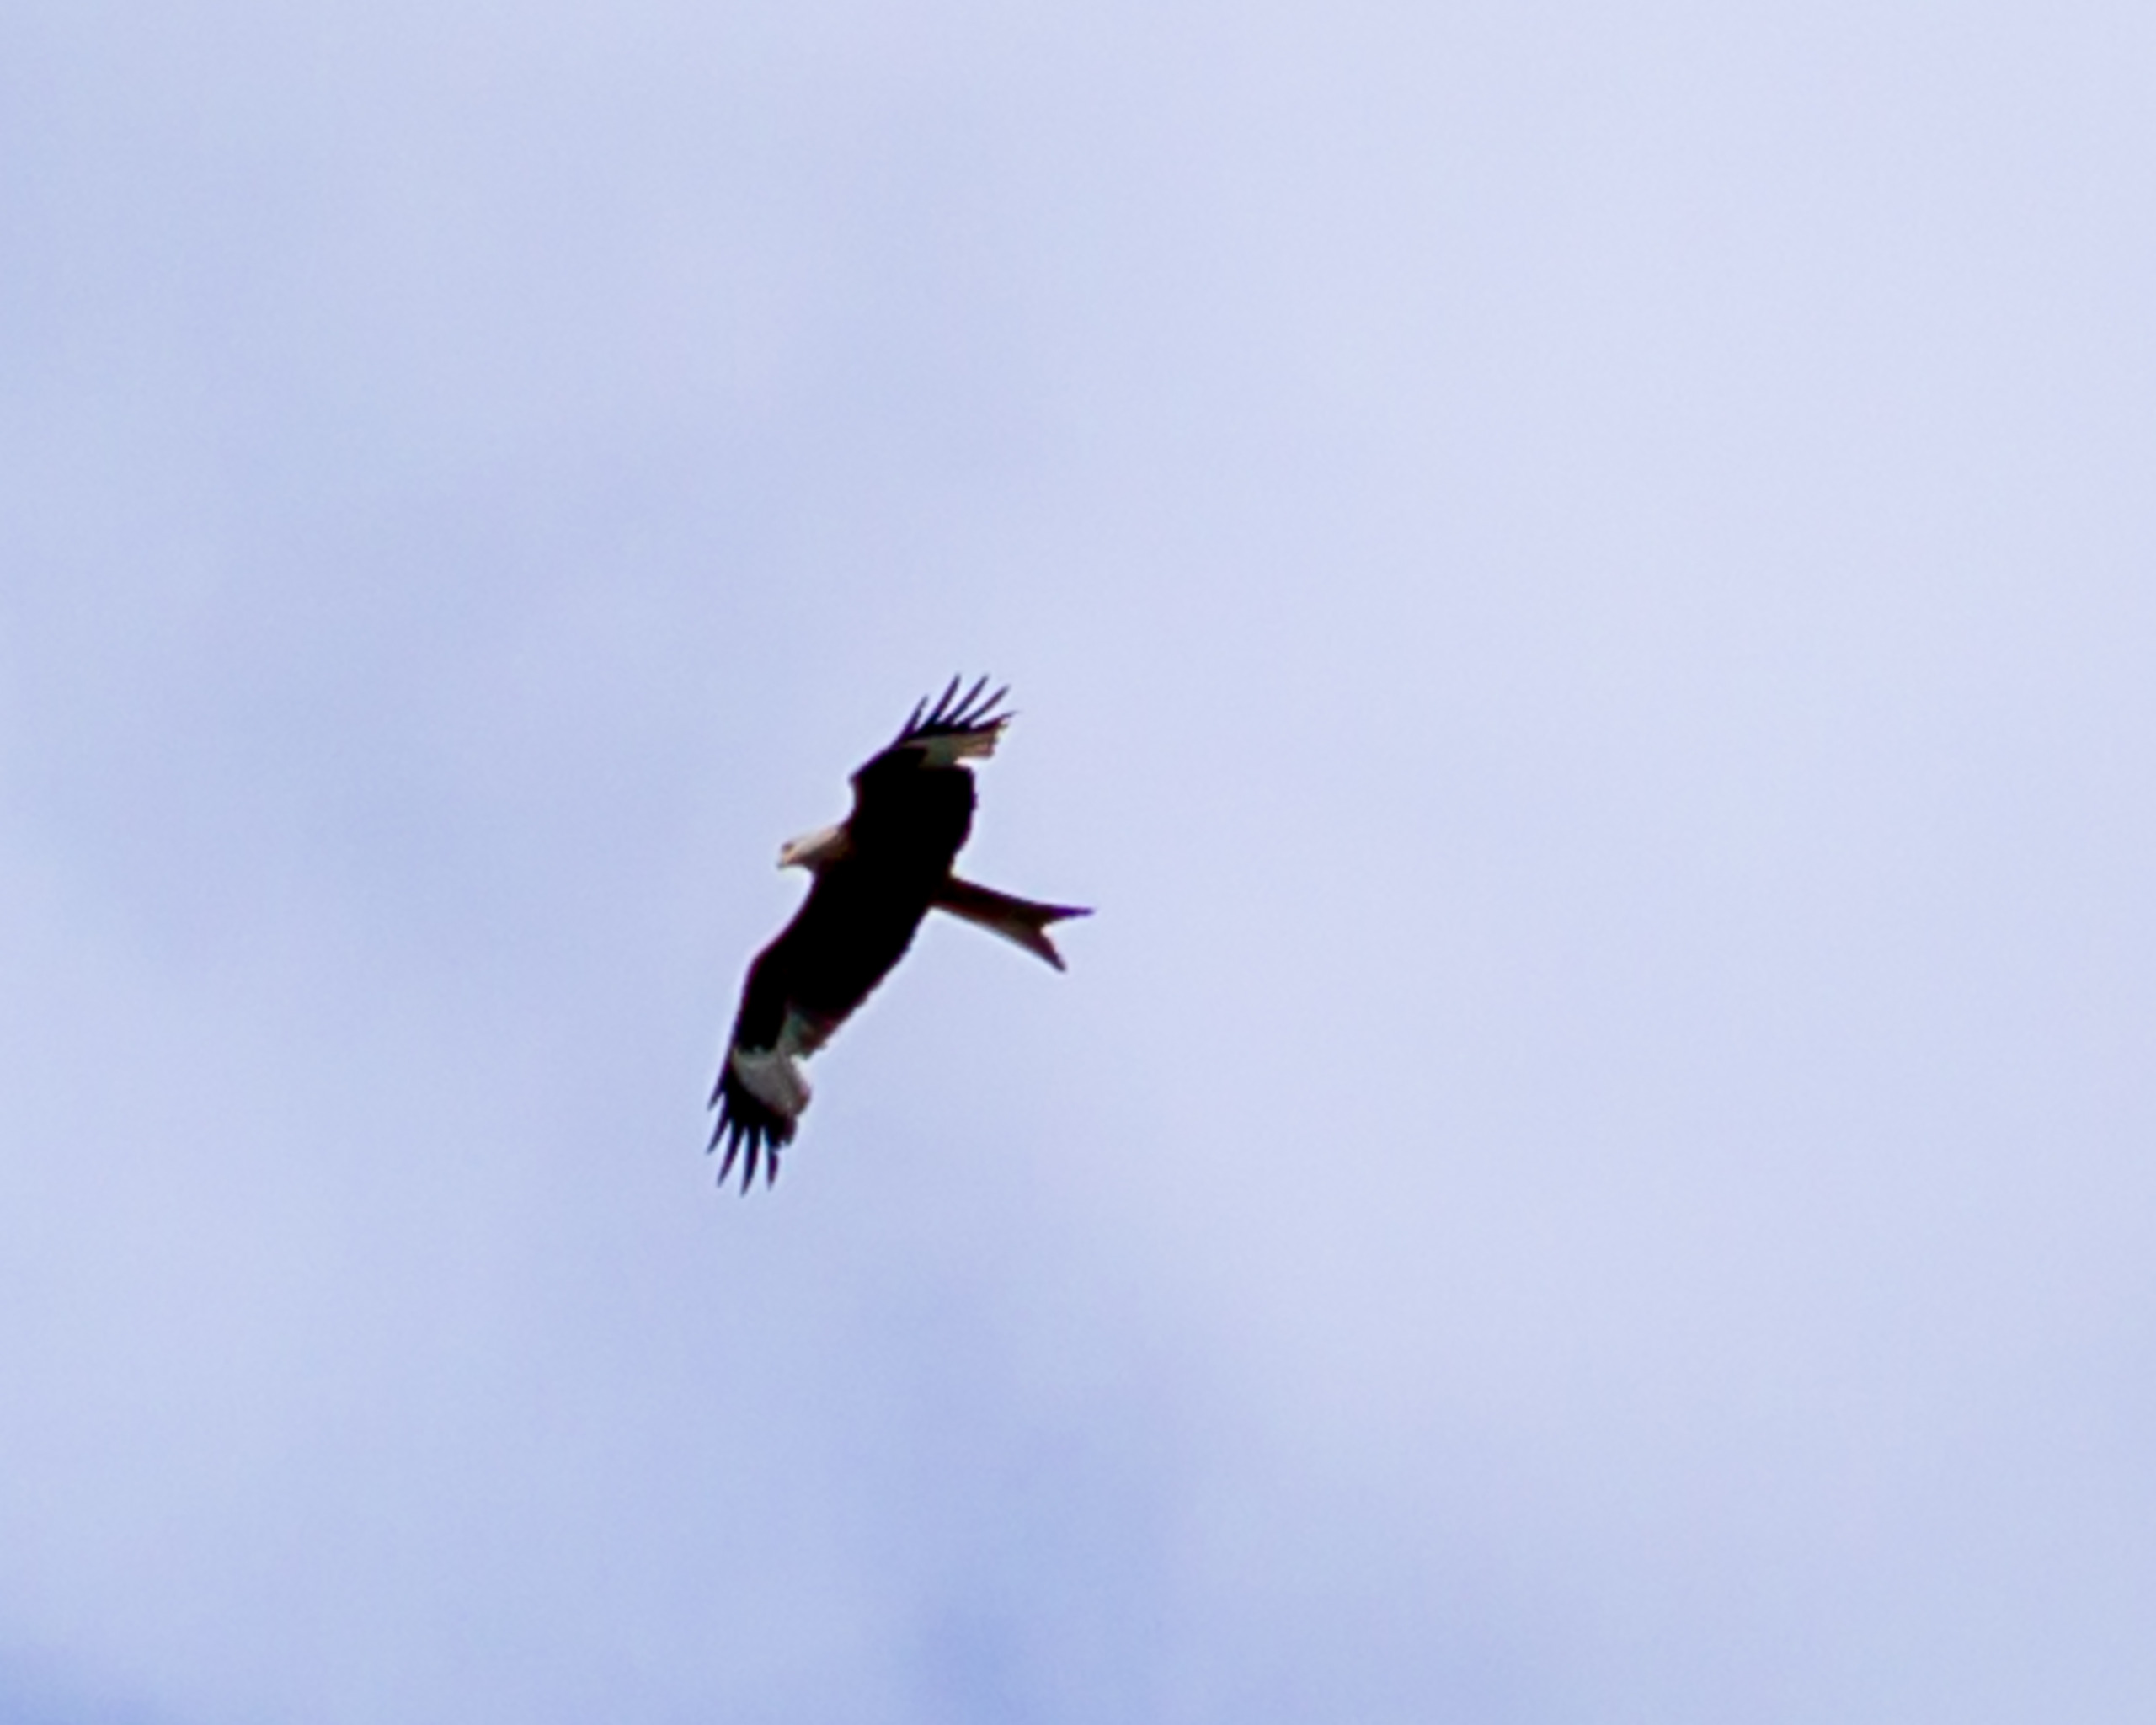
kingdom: Animalia
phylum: Chordata
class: Aves
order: Accipitriformes
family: Accipitridae
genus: Milvus
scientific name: Milvus milvus
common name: Rød glente
